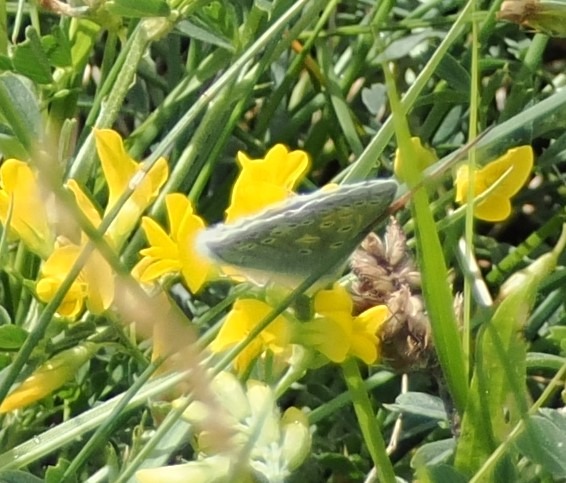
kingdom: Animalia
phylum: Arthropoda
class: Insecta
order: Lepidoptera
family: Lycaenidae
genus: Polyommatus
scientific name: Polyommatus icarus
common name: Almindelig blåfugl
